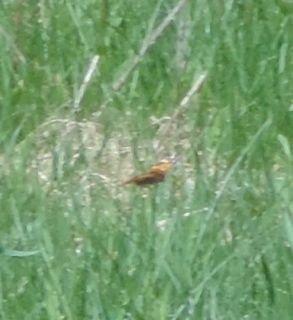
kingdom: Animalia
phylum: Arthropoda
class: Insecta
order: Lepidoptera
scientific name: Lepidoptera
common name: Butterflies
